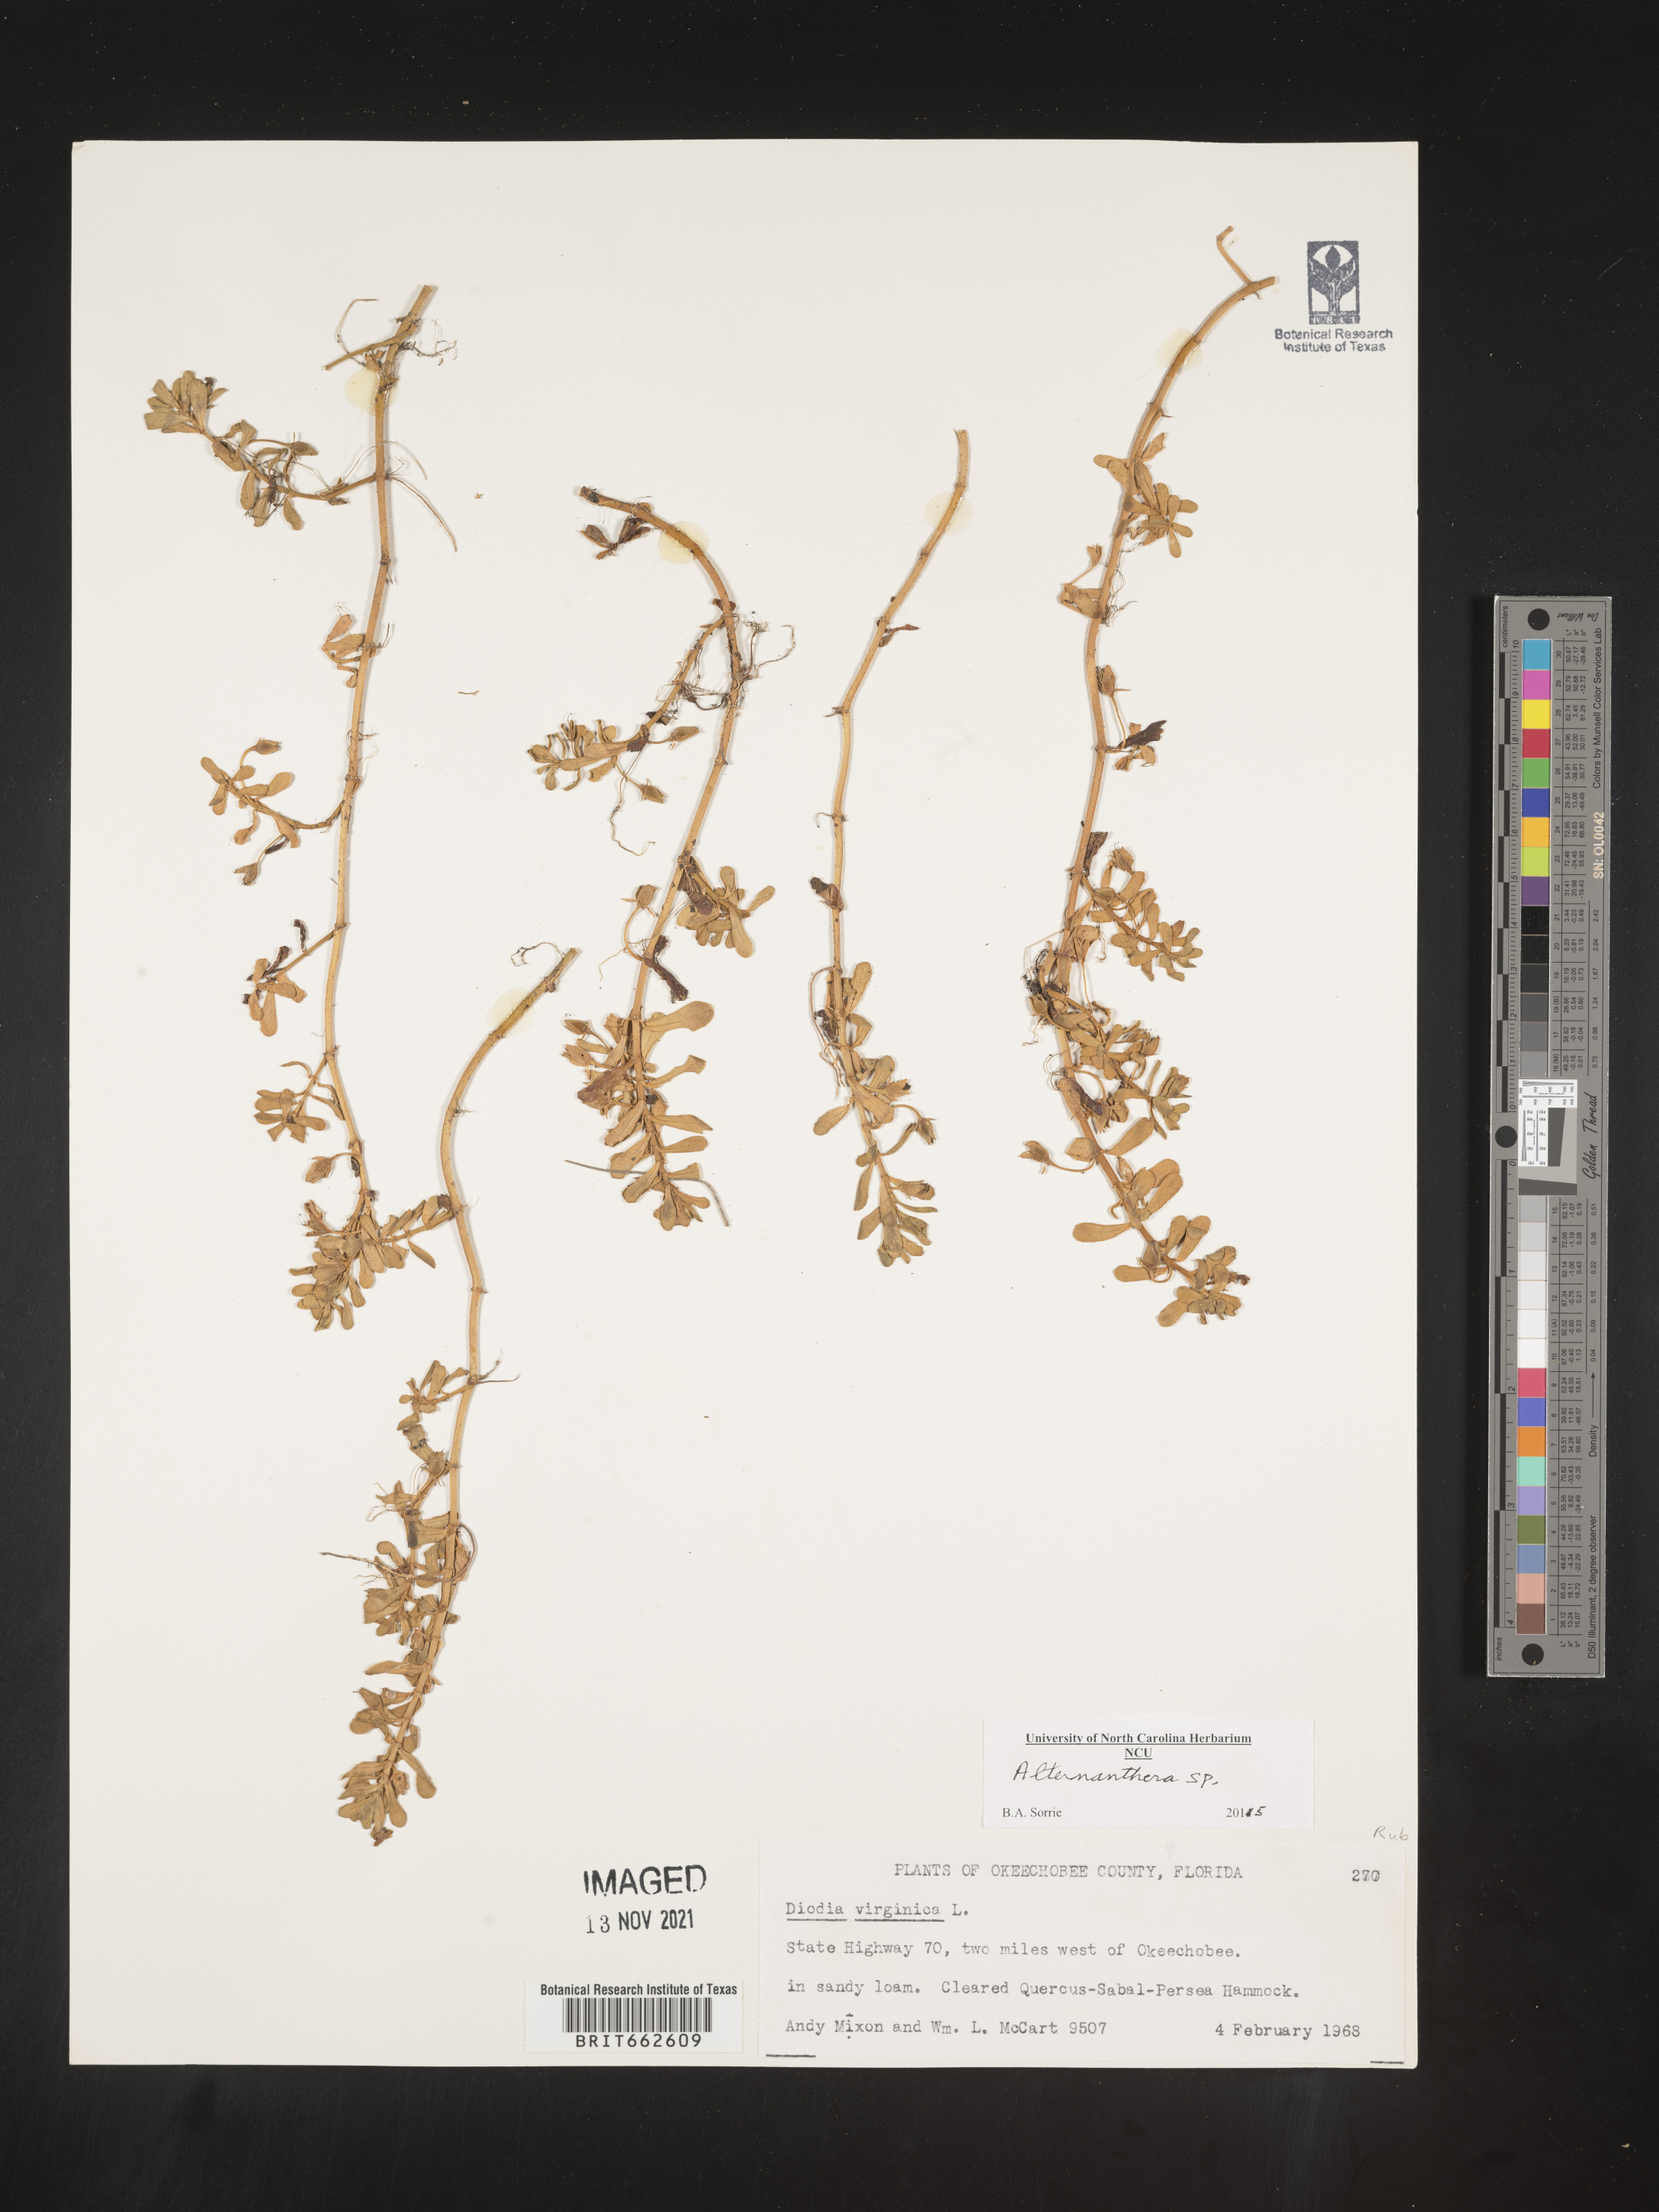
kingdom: Plantae
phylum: Tracheophyta
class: Magnoliopsida
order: Caryophyllales
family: Amaranthaceae
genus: Alternanthera
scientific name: Alternanthera
